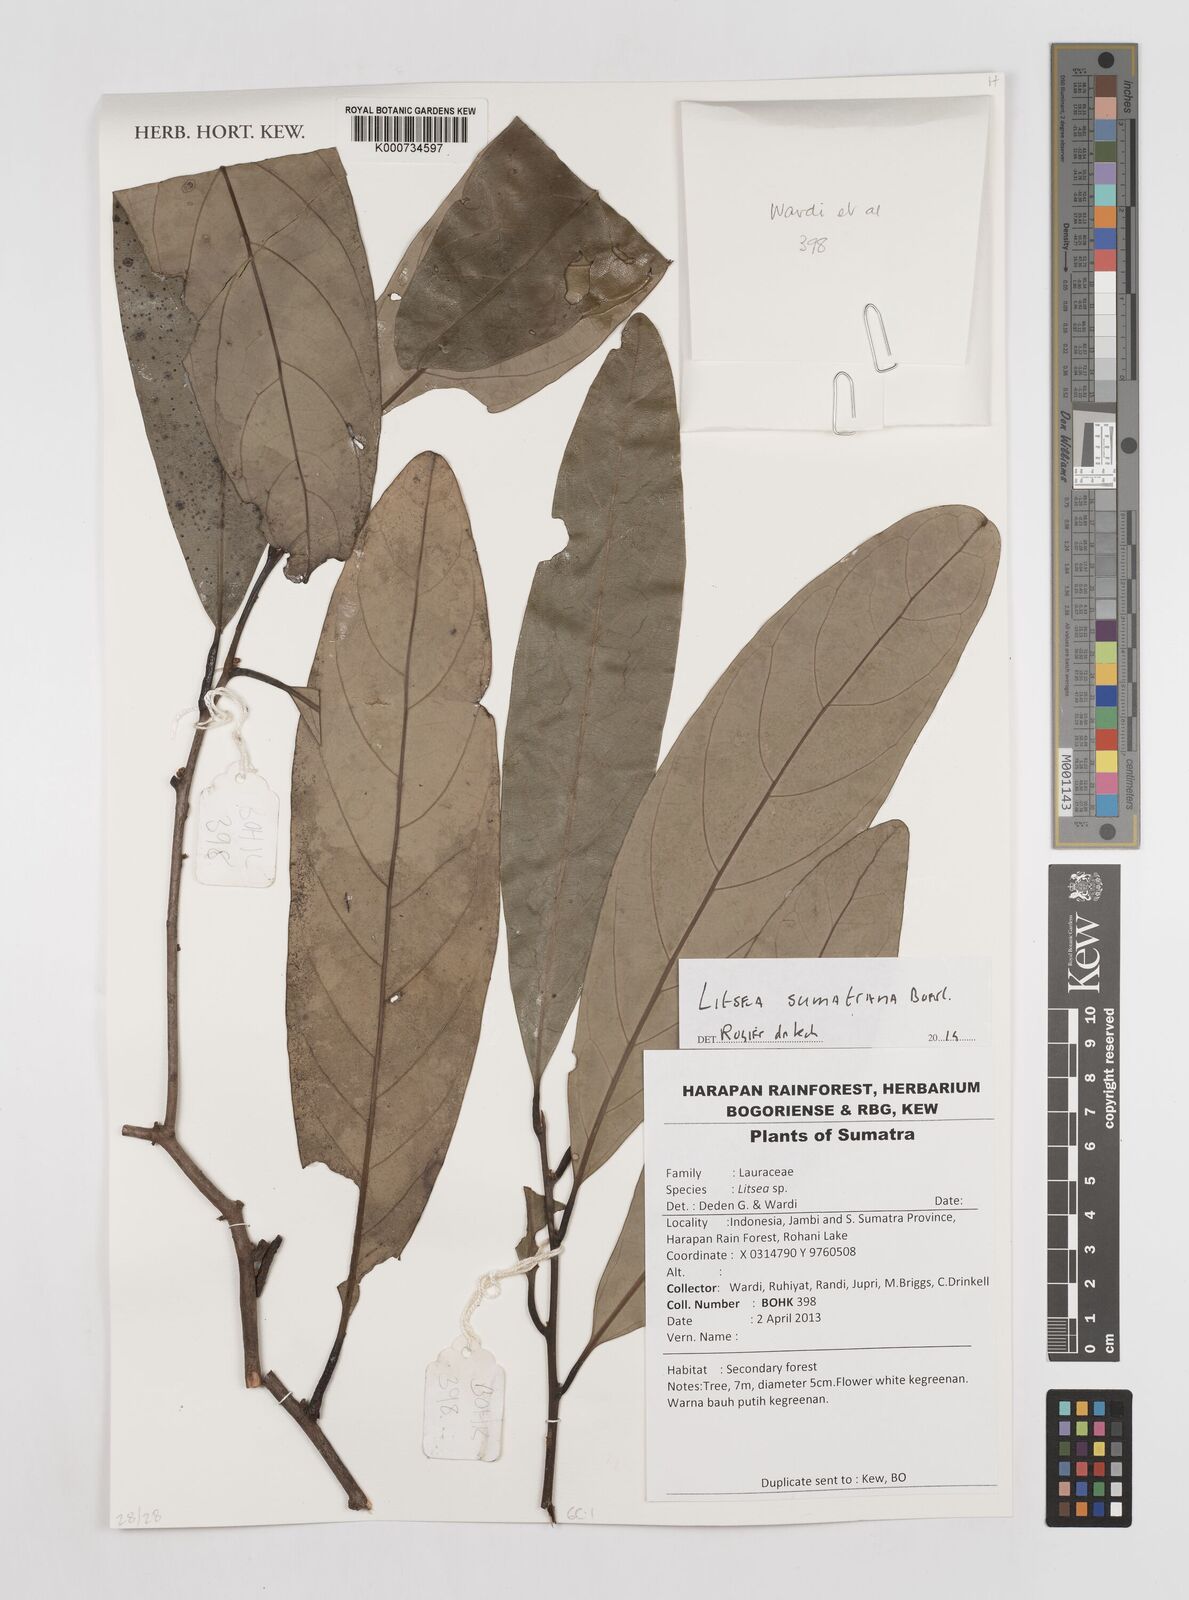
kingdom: Plantae
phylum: Tracheophyta
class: Magnoliopsida
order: Laurales
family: Lauraceae
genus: Litsea
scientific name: Litsea sumatrana
